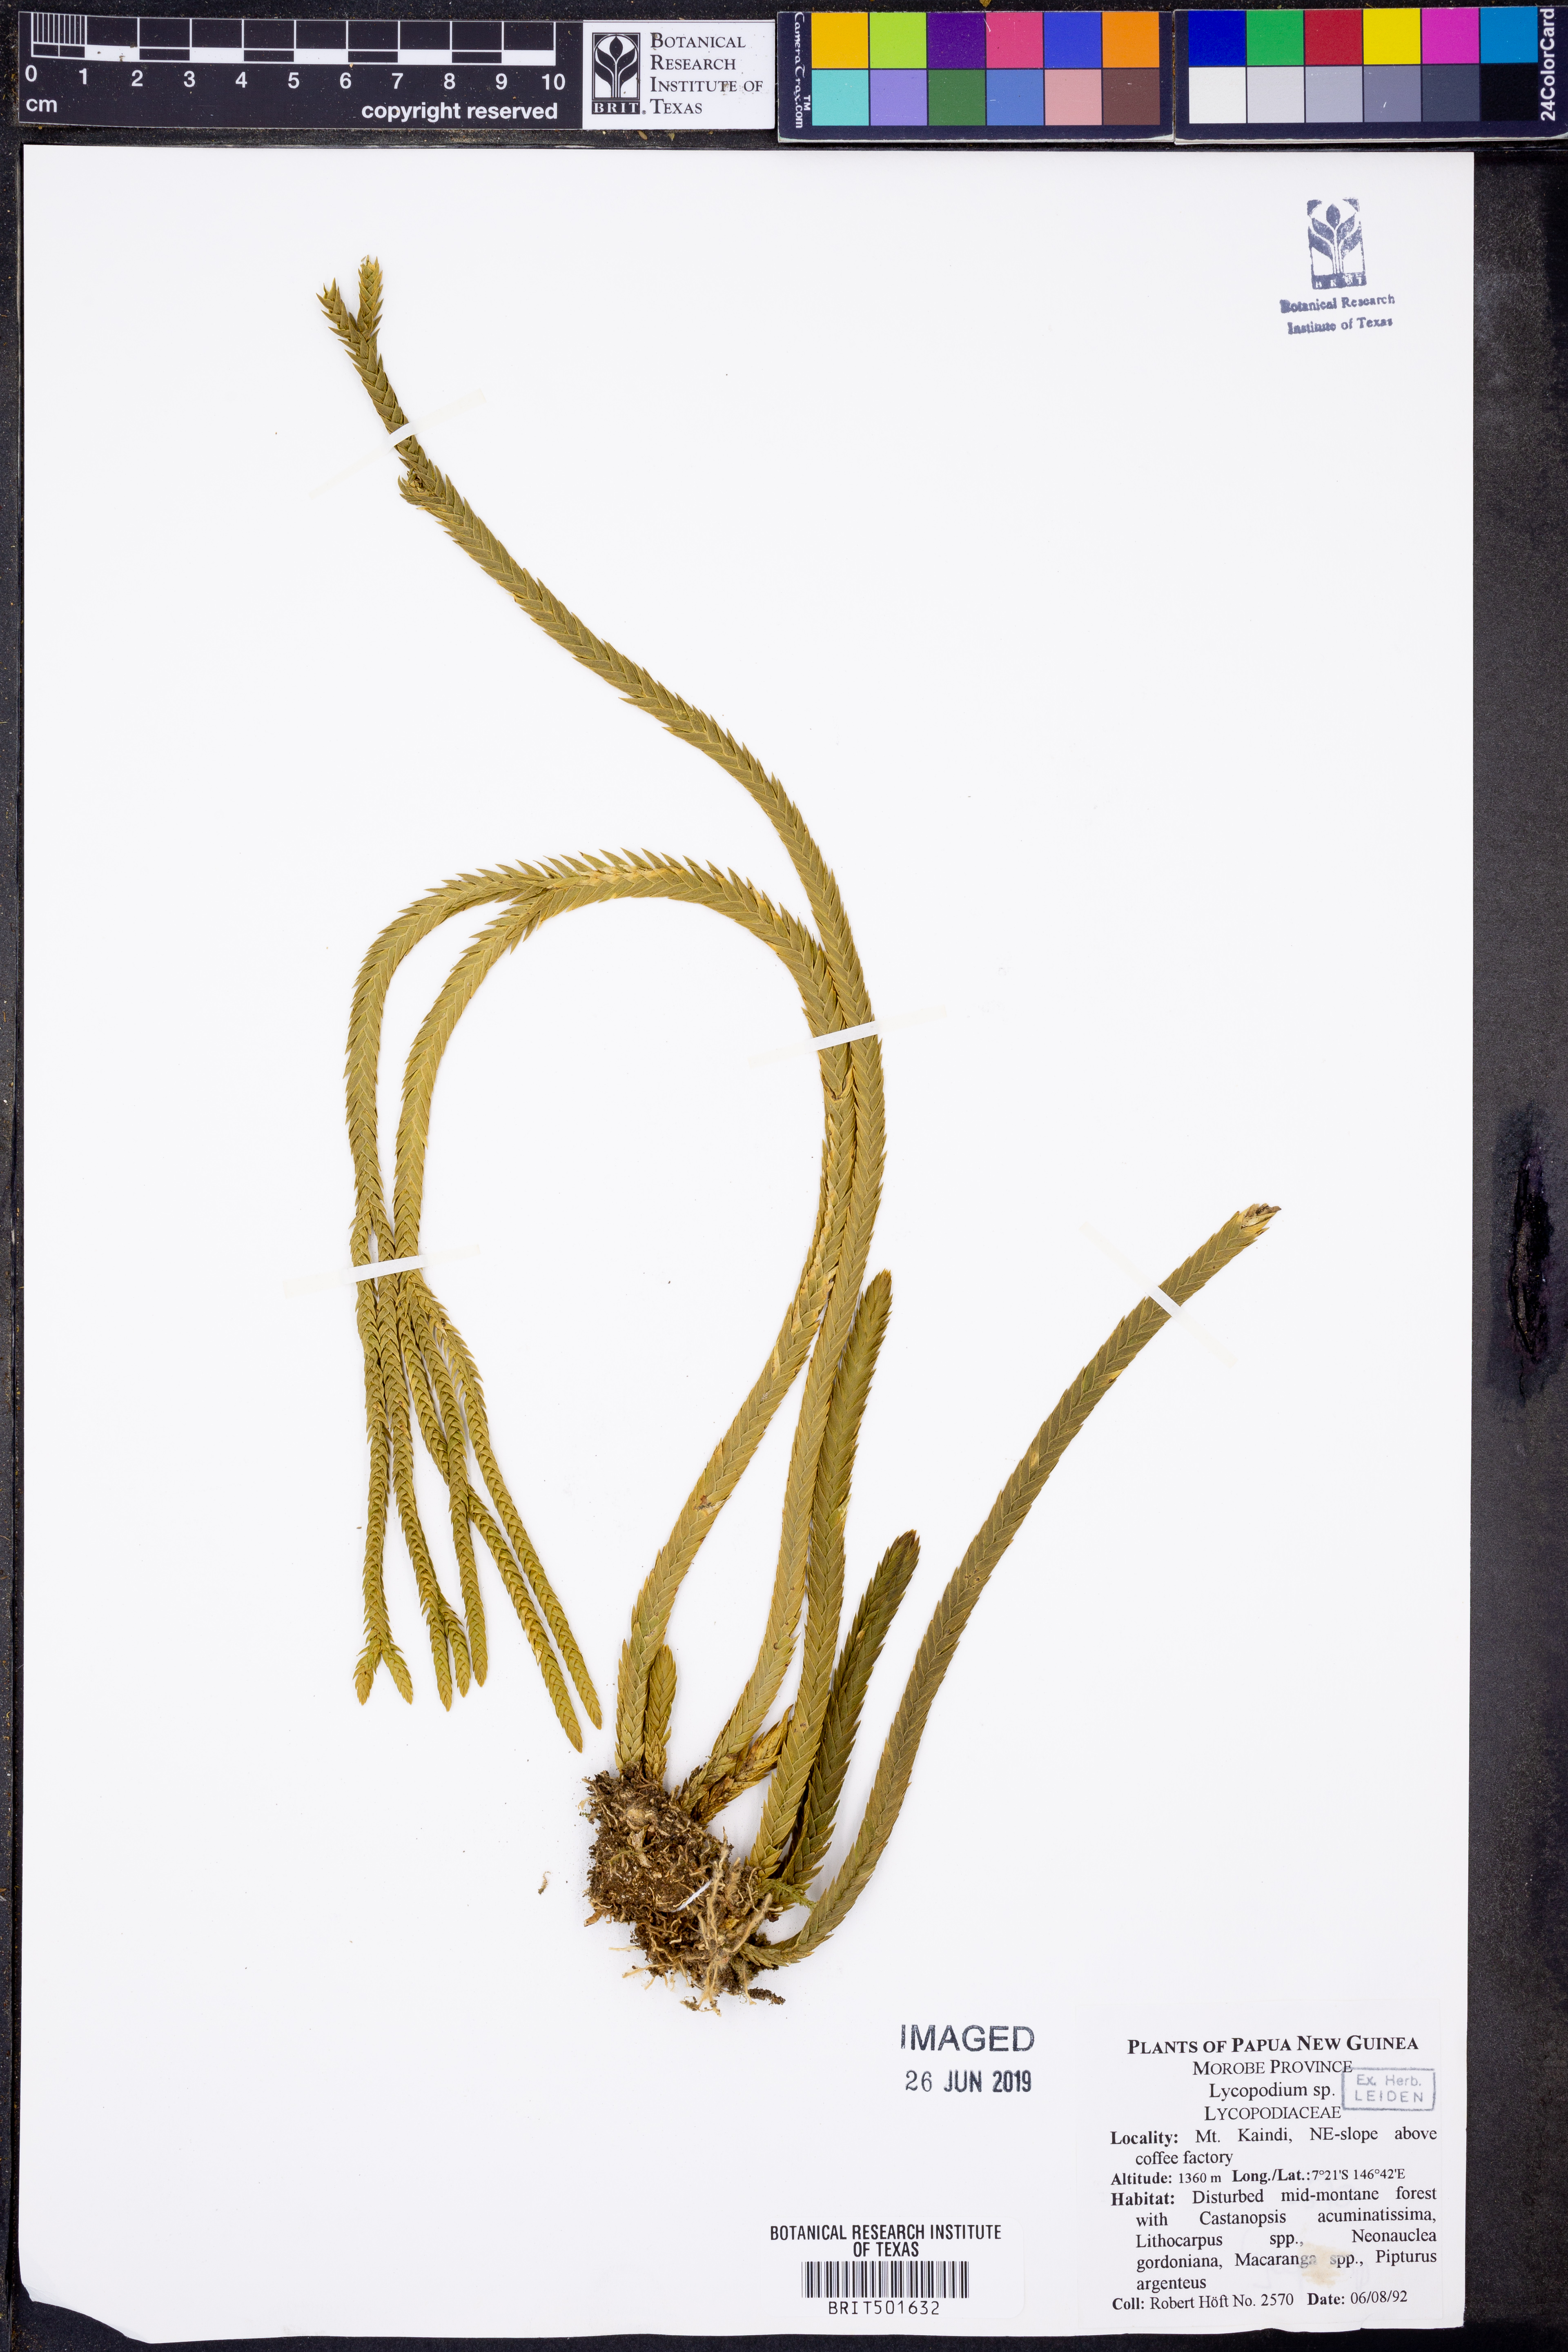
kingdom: Plantae
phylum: Tracheophyta
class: Lycopodiopsida
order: Lycopodiales
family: Lycopodiaceae
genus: Lycopodium
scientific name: Lycopodium
